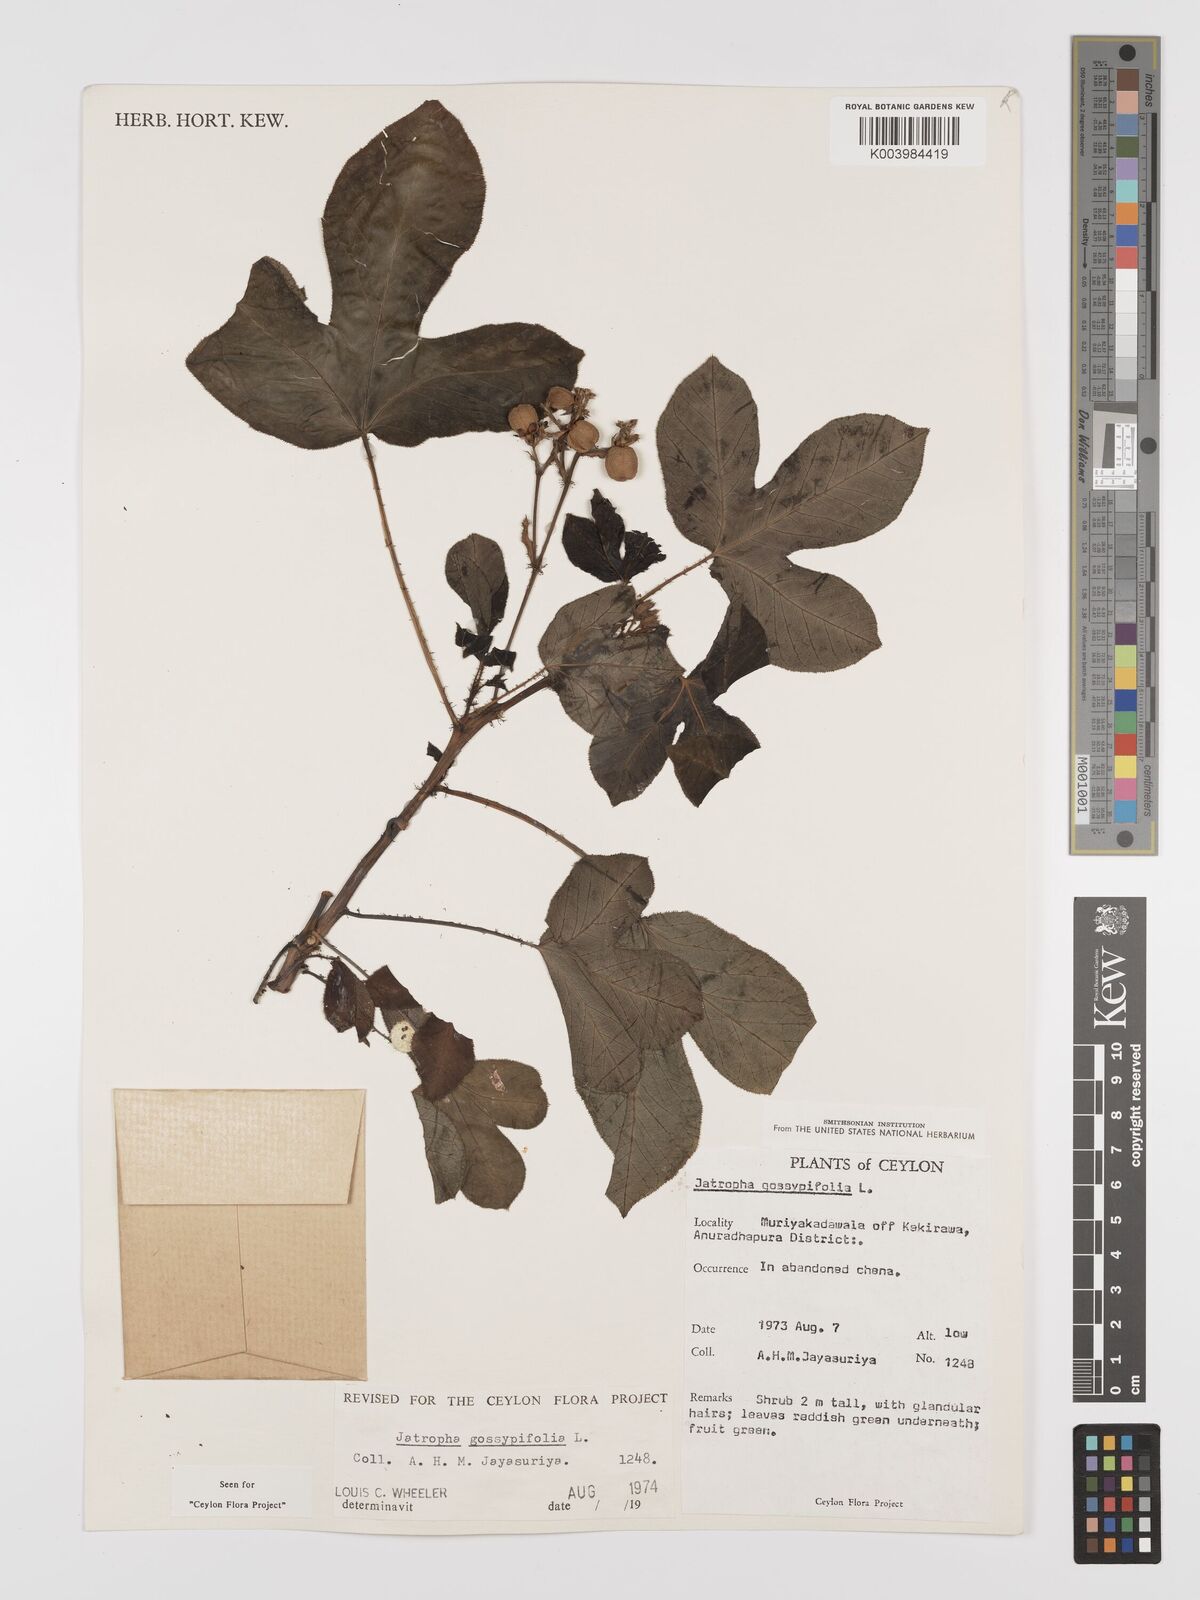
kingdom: Plantae
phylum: Tracheophyta
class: Magnoliopsida
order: Malpighiales
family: Euphorbiaceae
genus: Jatropha
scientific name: Jatropha gossypiifolia
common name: Bellyache bush
